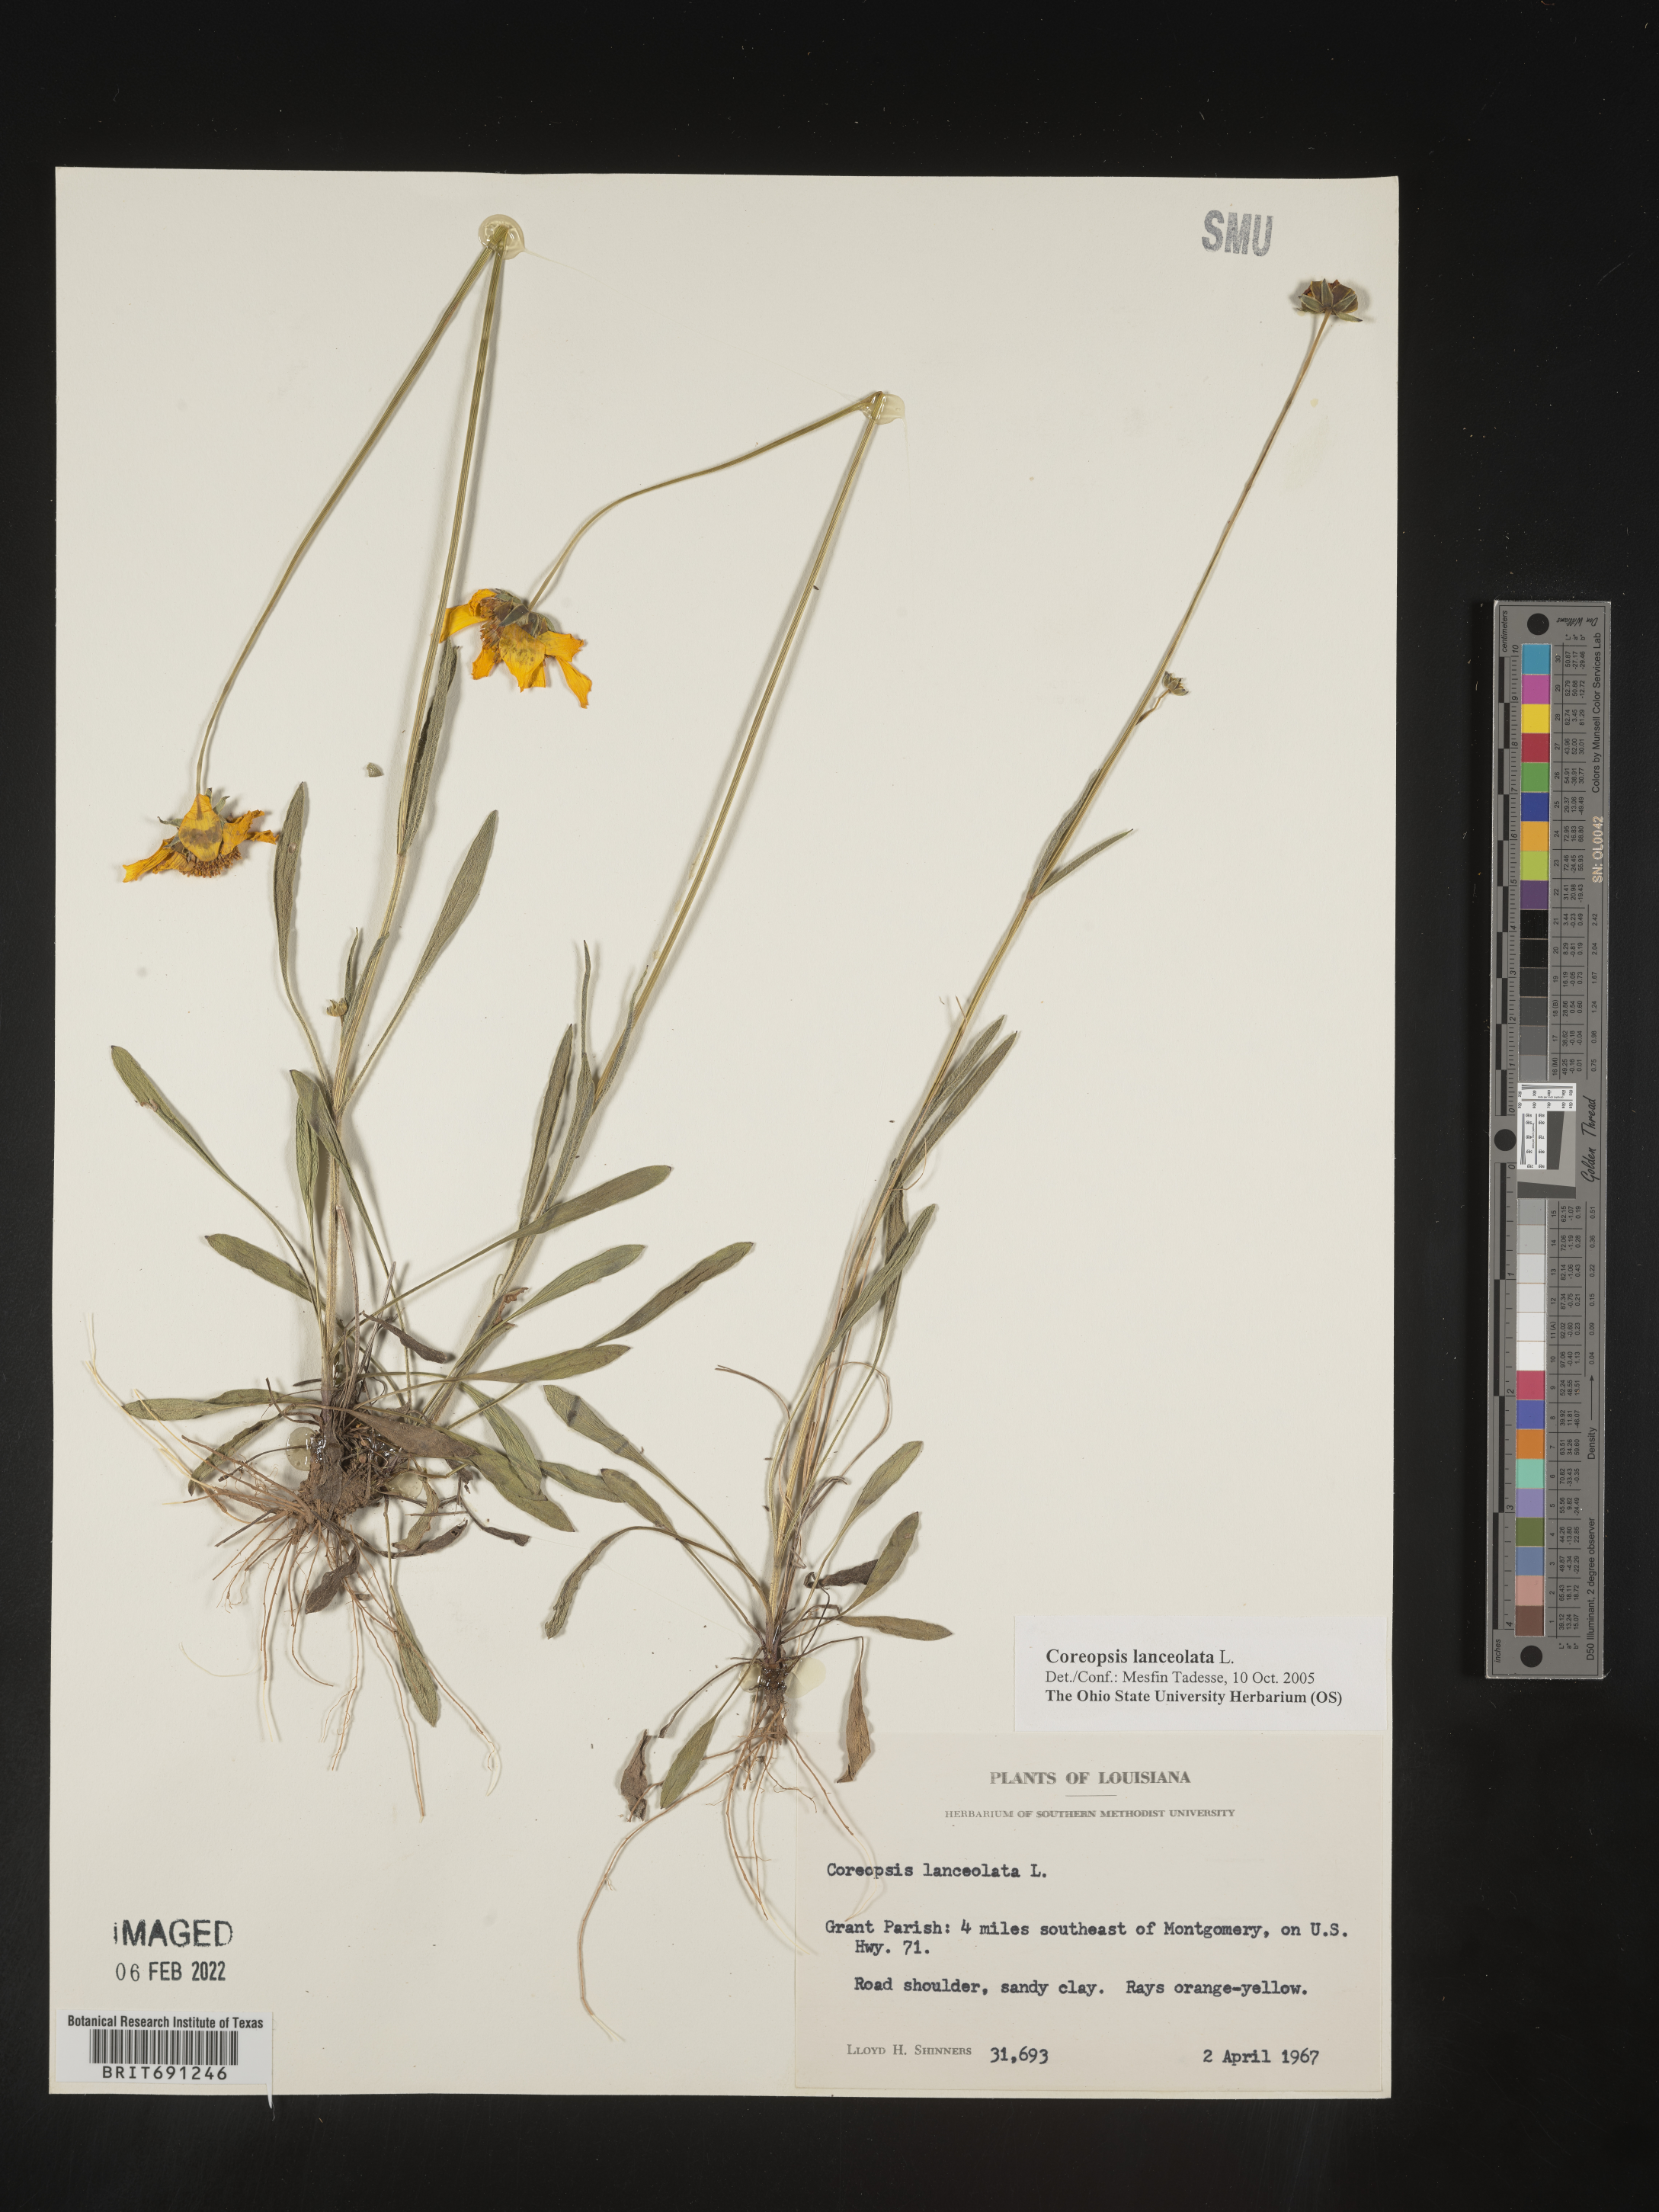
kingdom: Plantae
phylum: Tracheophyta
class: Magnoliopsida
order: Asterales
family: Asteraceae
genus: Coreopsis
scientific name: Coreopsis lanceolata
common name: Garden coreopsis
